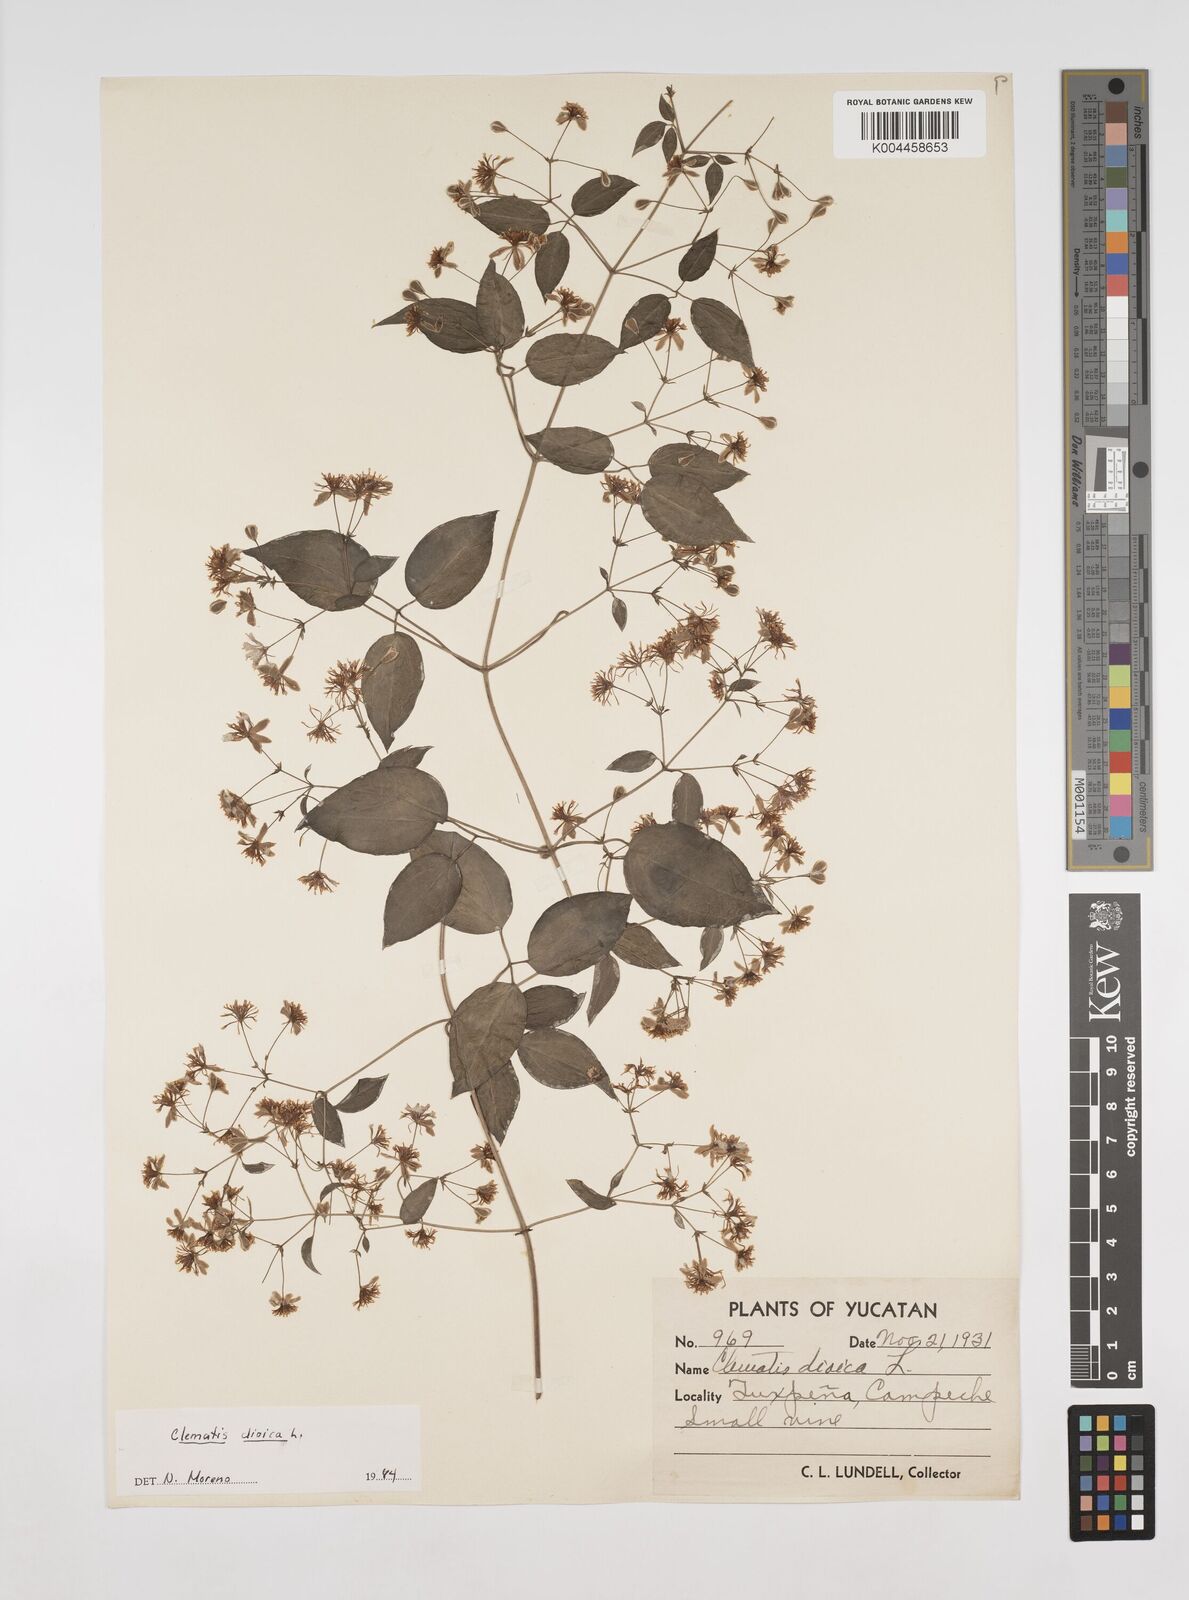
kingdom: Plantae
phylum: Tracheophyta
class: Magnoliopsida
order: Ranunculales
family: Ranunculaceae
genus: Clematis
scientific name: Clematis dioica
